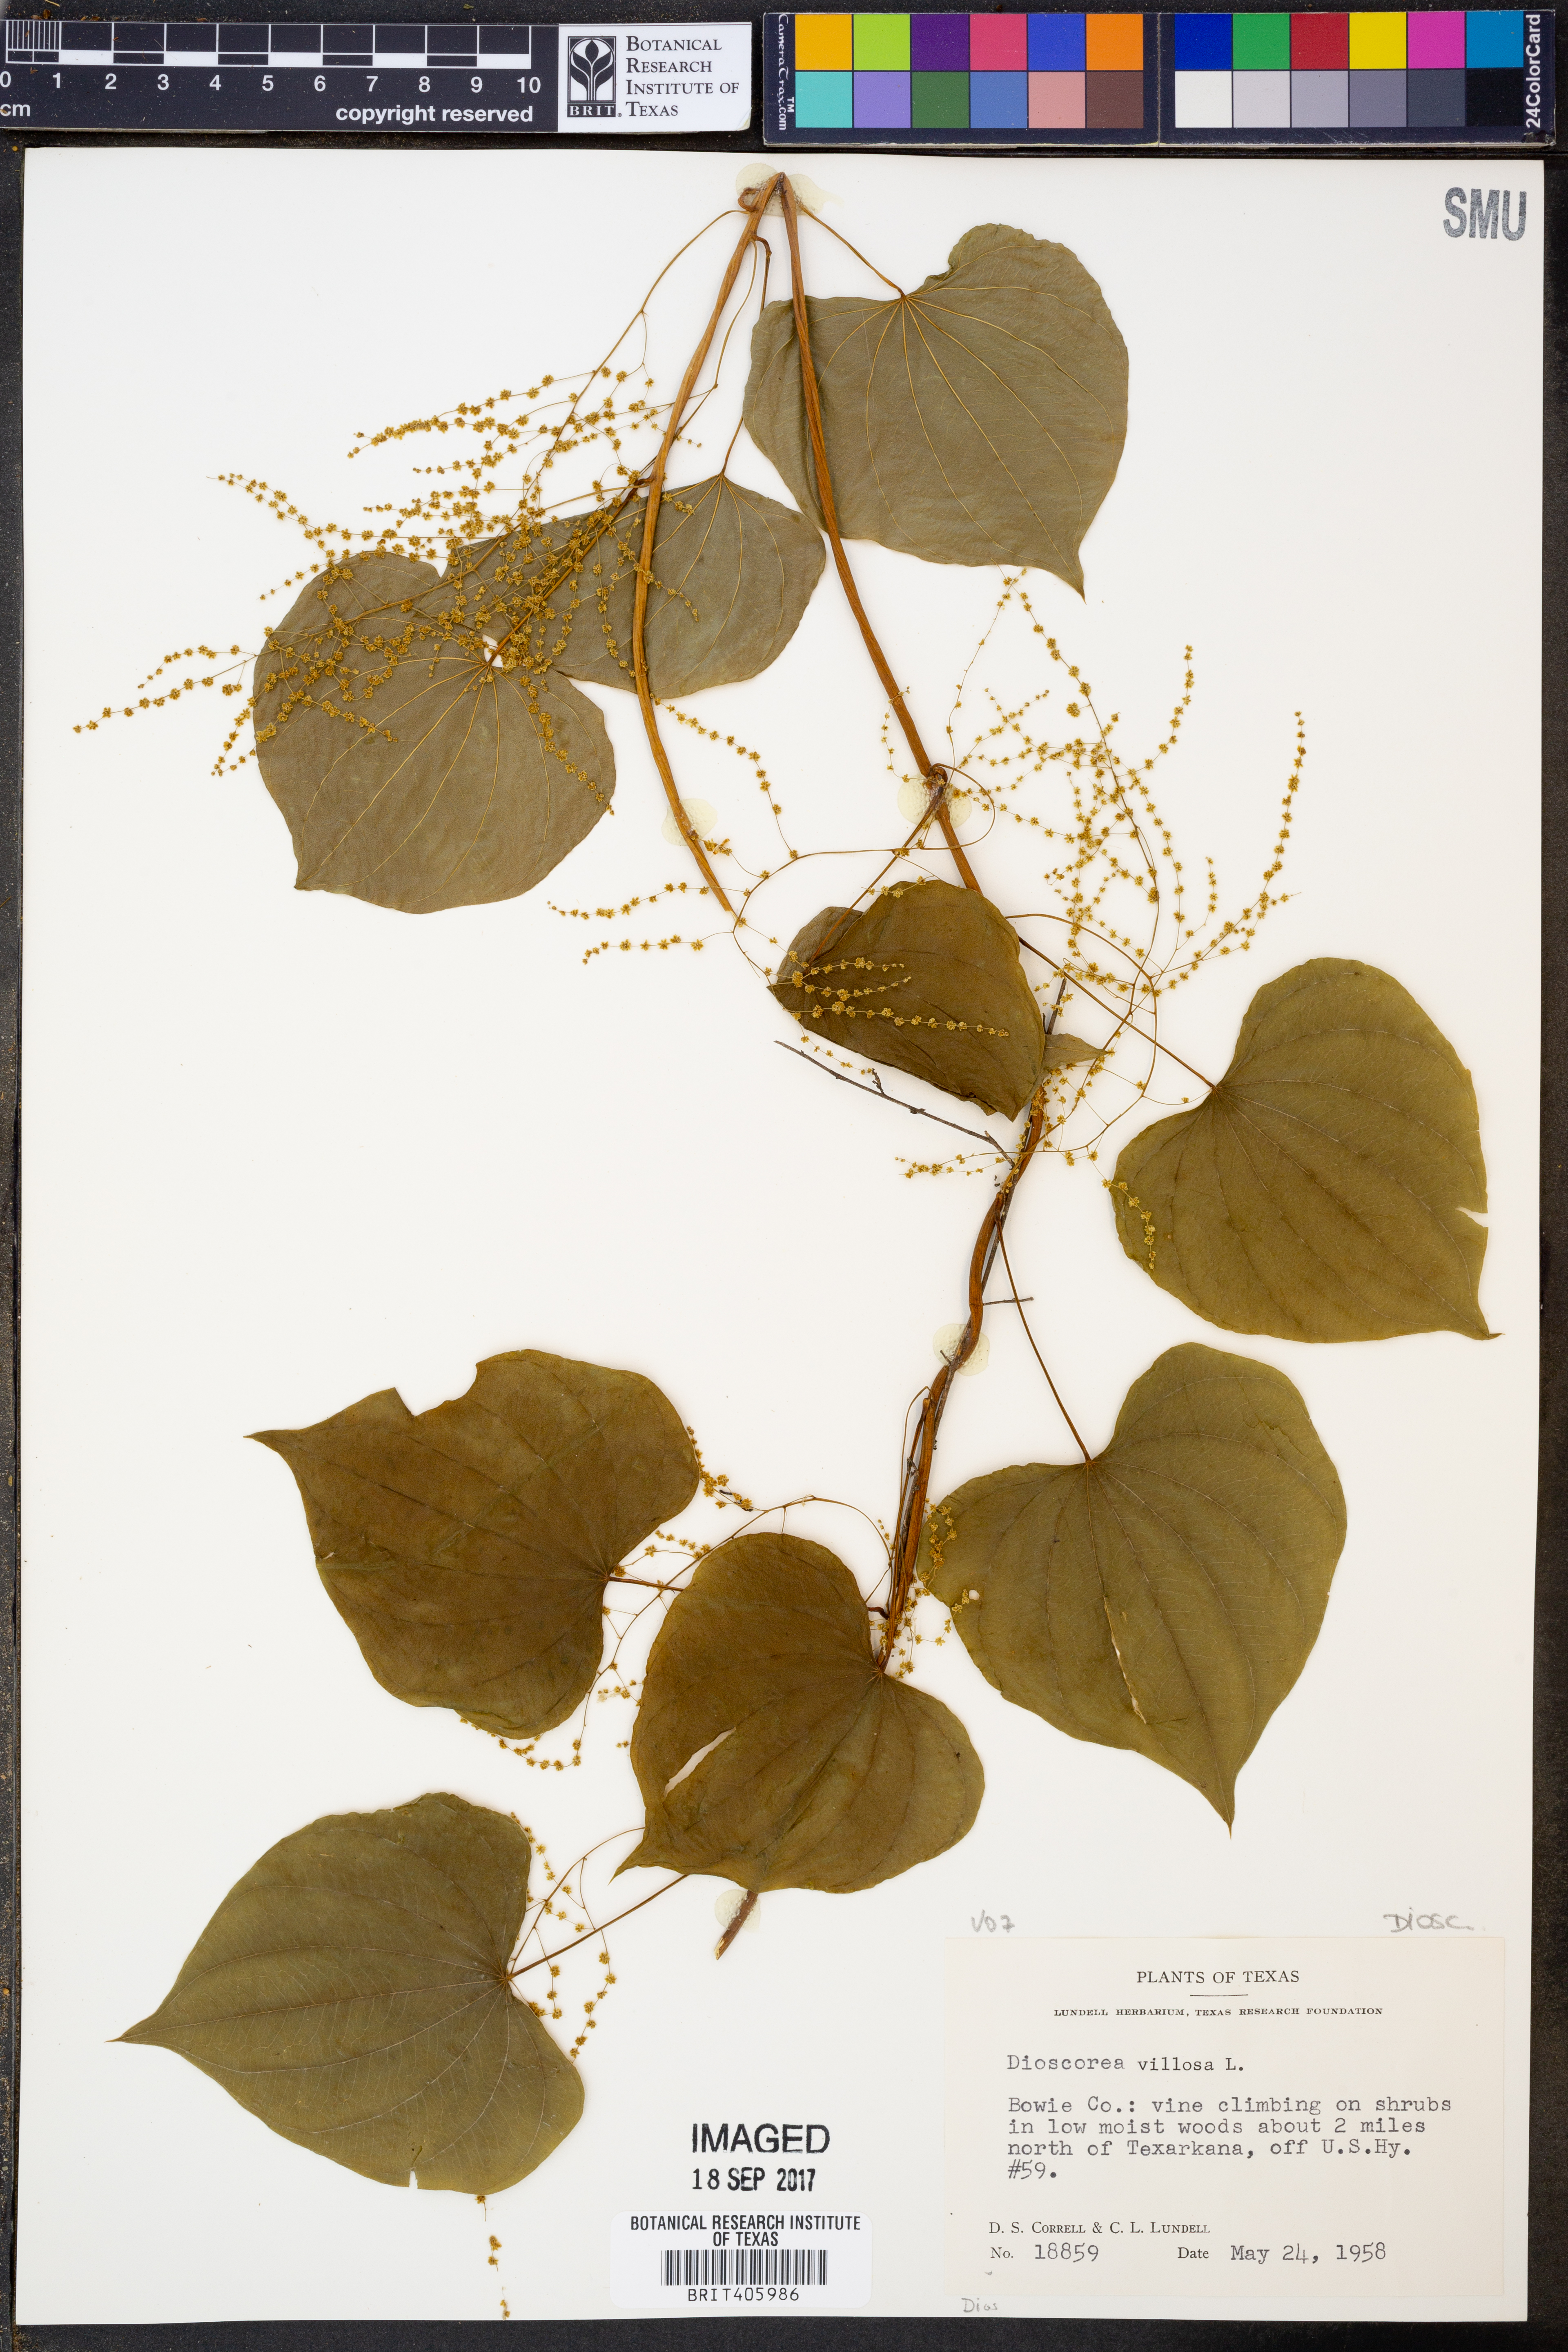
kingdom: Plantae
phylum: Tracheophyta
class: Liliopsida
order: Dioscoreales
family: Dioscoreaceae
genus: Dioscorea
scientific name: Dioscorea villosa
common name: Wild yam
